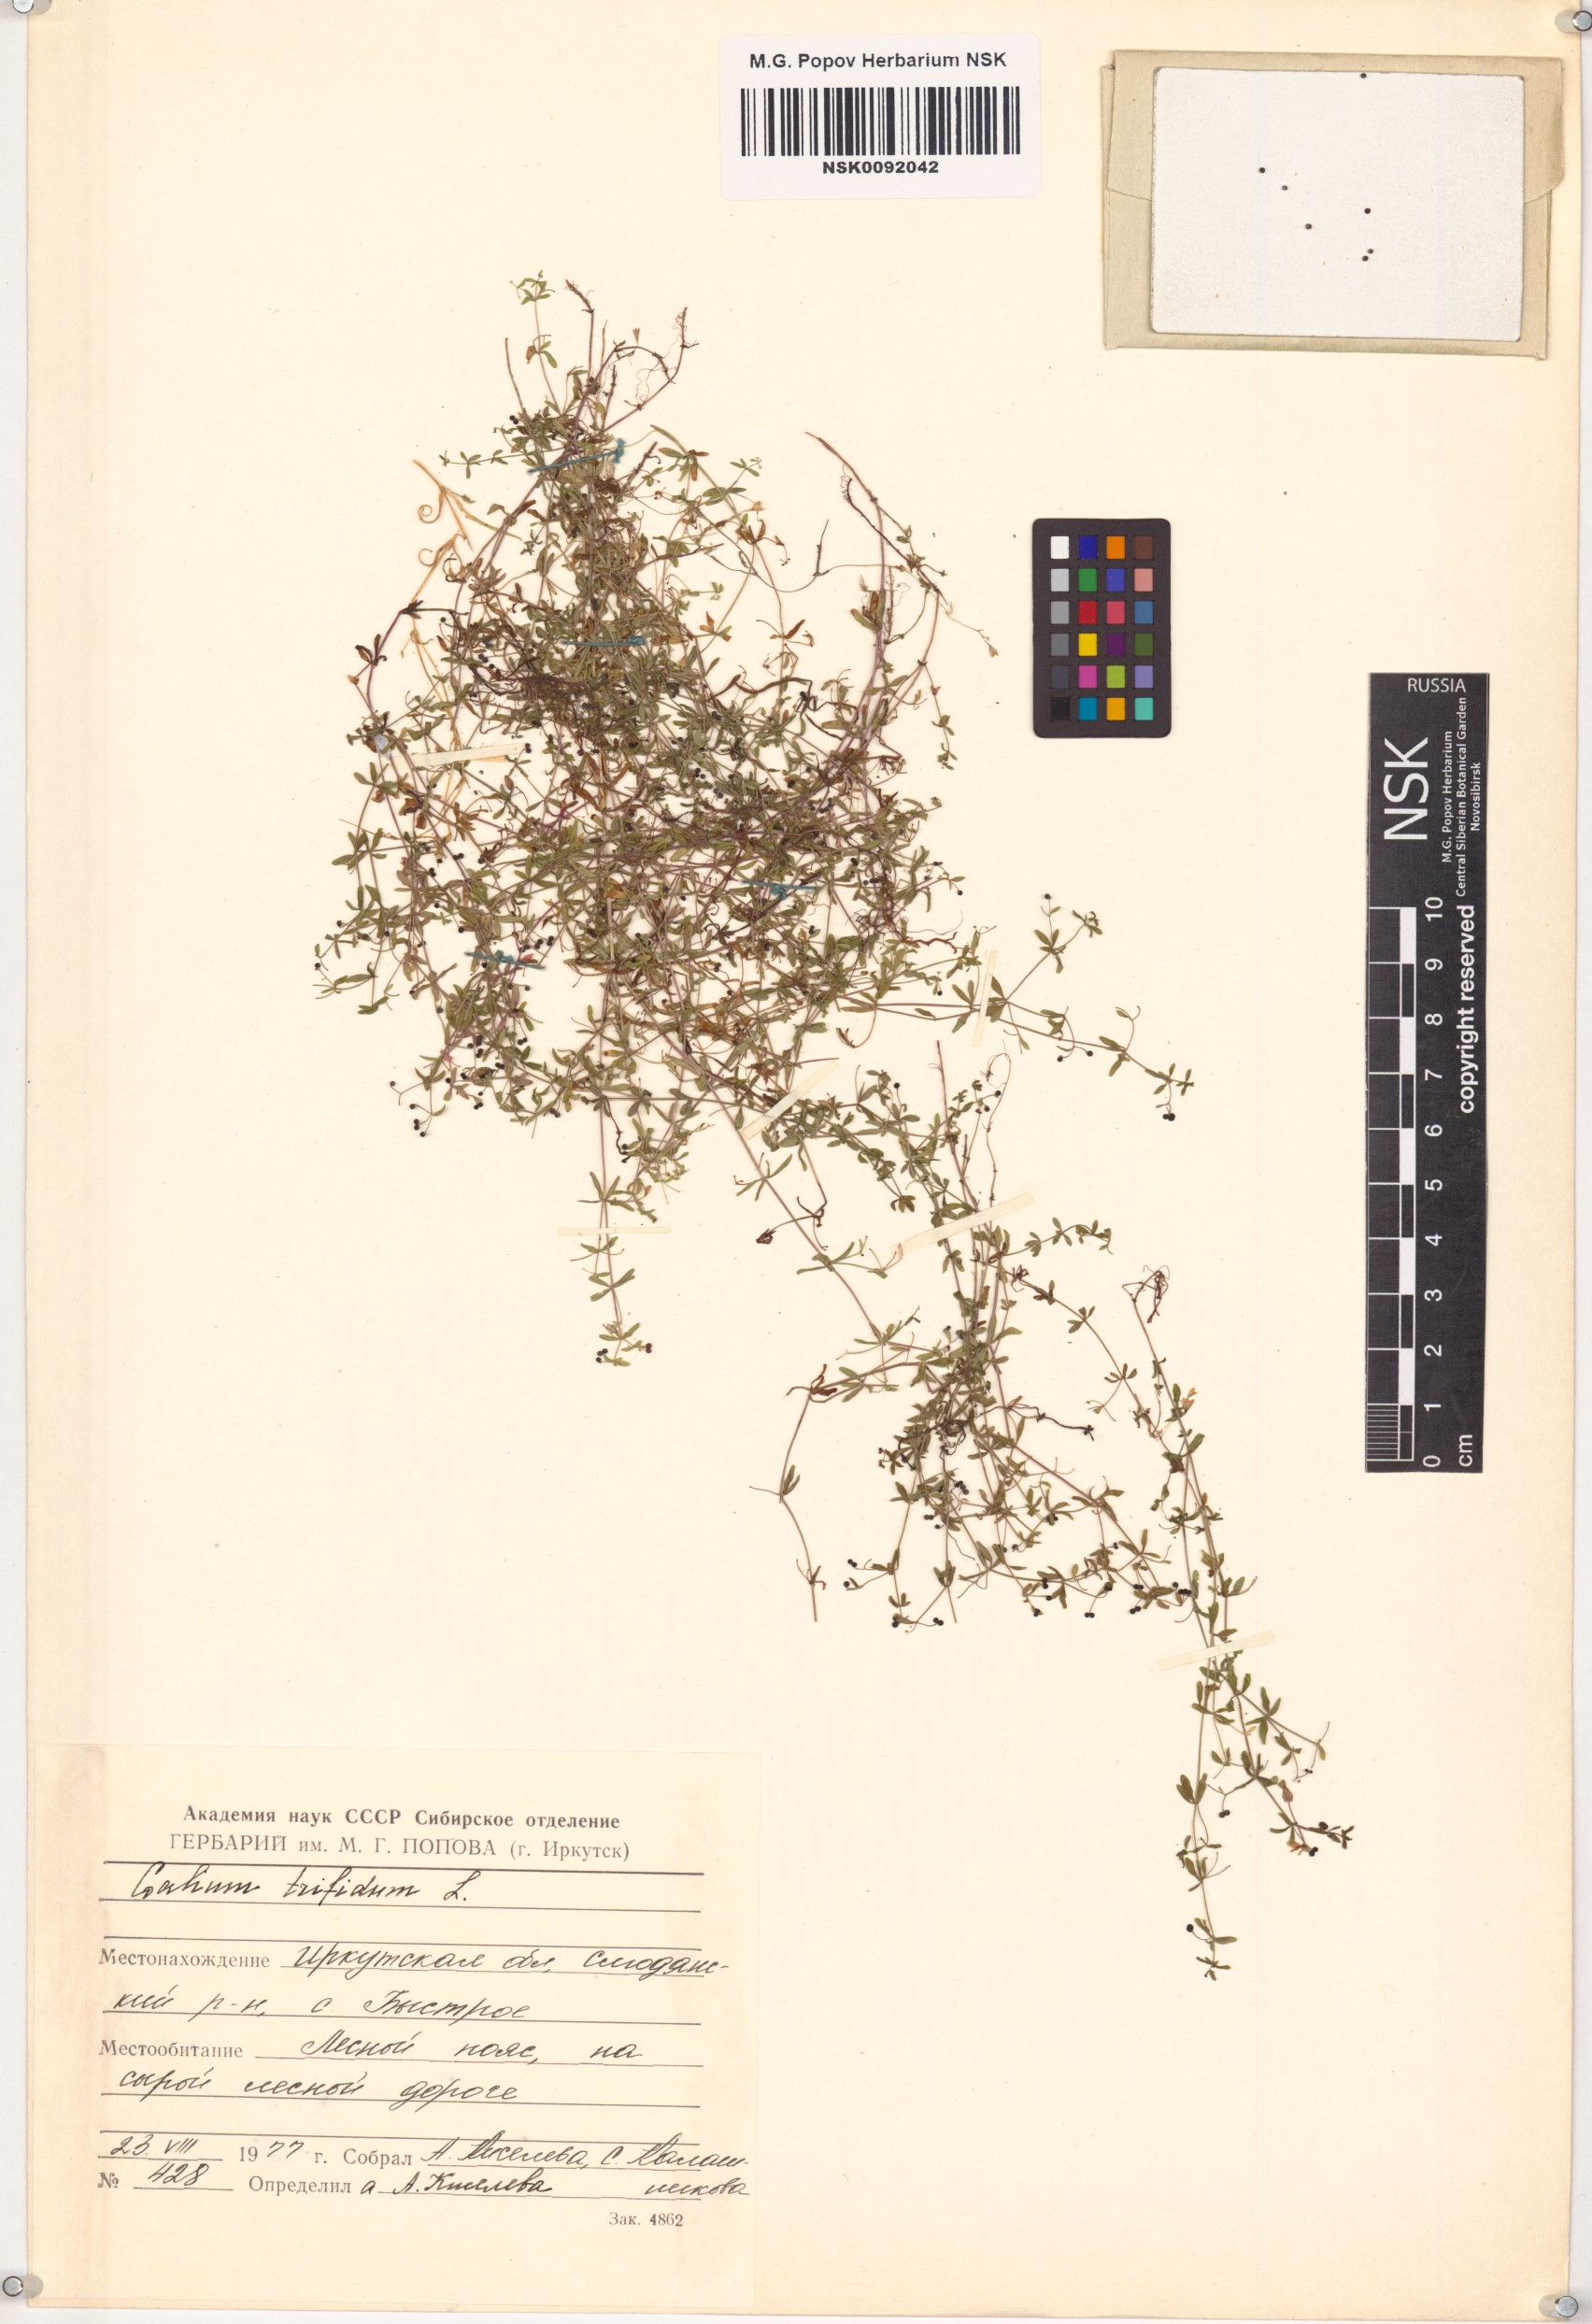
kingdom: Plantae
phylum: Tracheophyta
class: Magnoliopsida
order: Gentianales
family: Rubiaceae
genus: Galium
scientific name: Galium trifidum
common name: Small bedstraw
